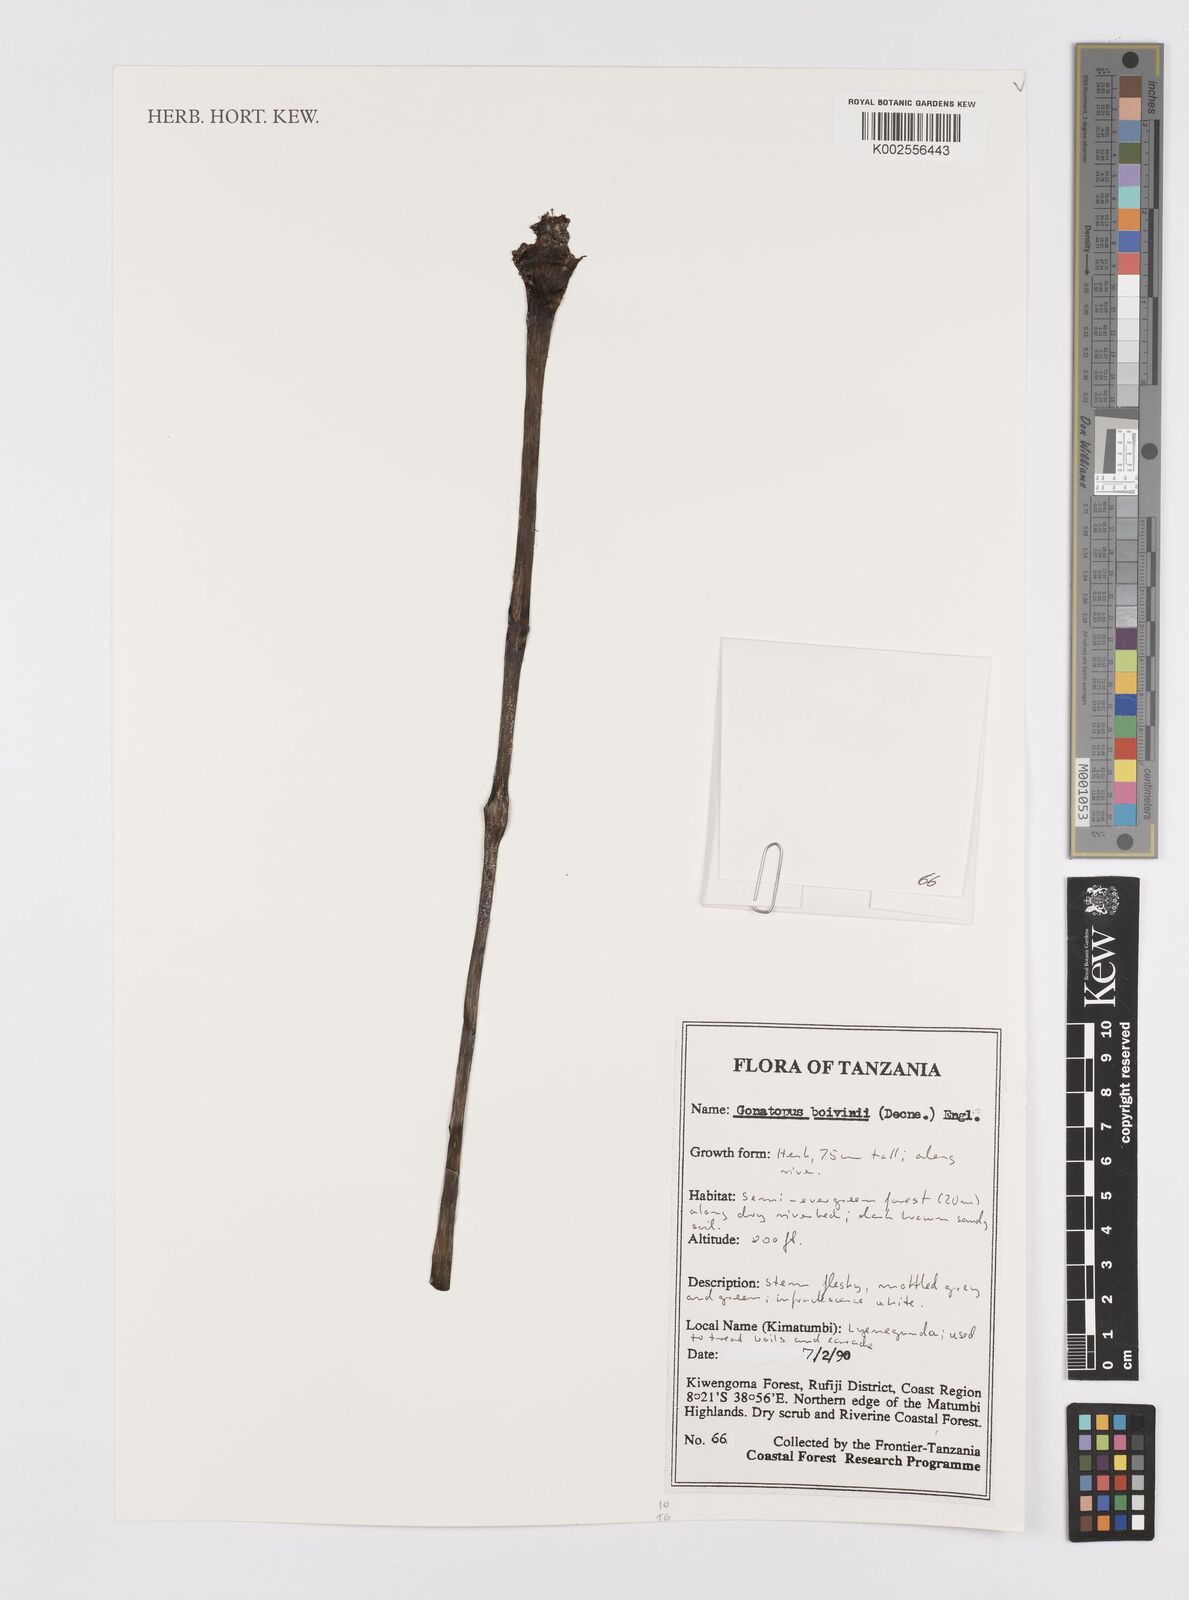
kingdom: Plantae
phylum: Tracheophyta
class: Liliopsida
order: Alismatales
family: Araceae
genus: Gonatopus
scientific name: Gonatopus boivinii
